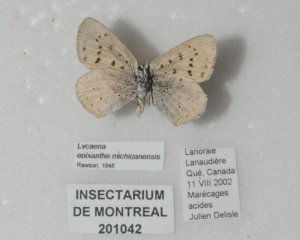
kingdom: Animalia
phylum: Arthropoda
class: Insecta
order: Lepidoptera
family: Sesiidae
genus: Sesia
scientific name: Sesia Lycaena epixanthe
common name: Bog Copper
